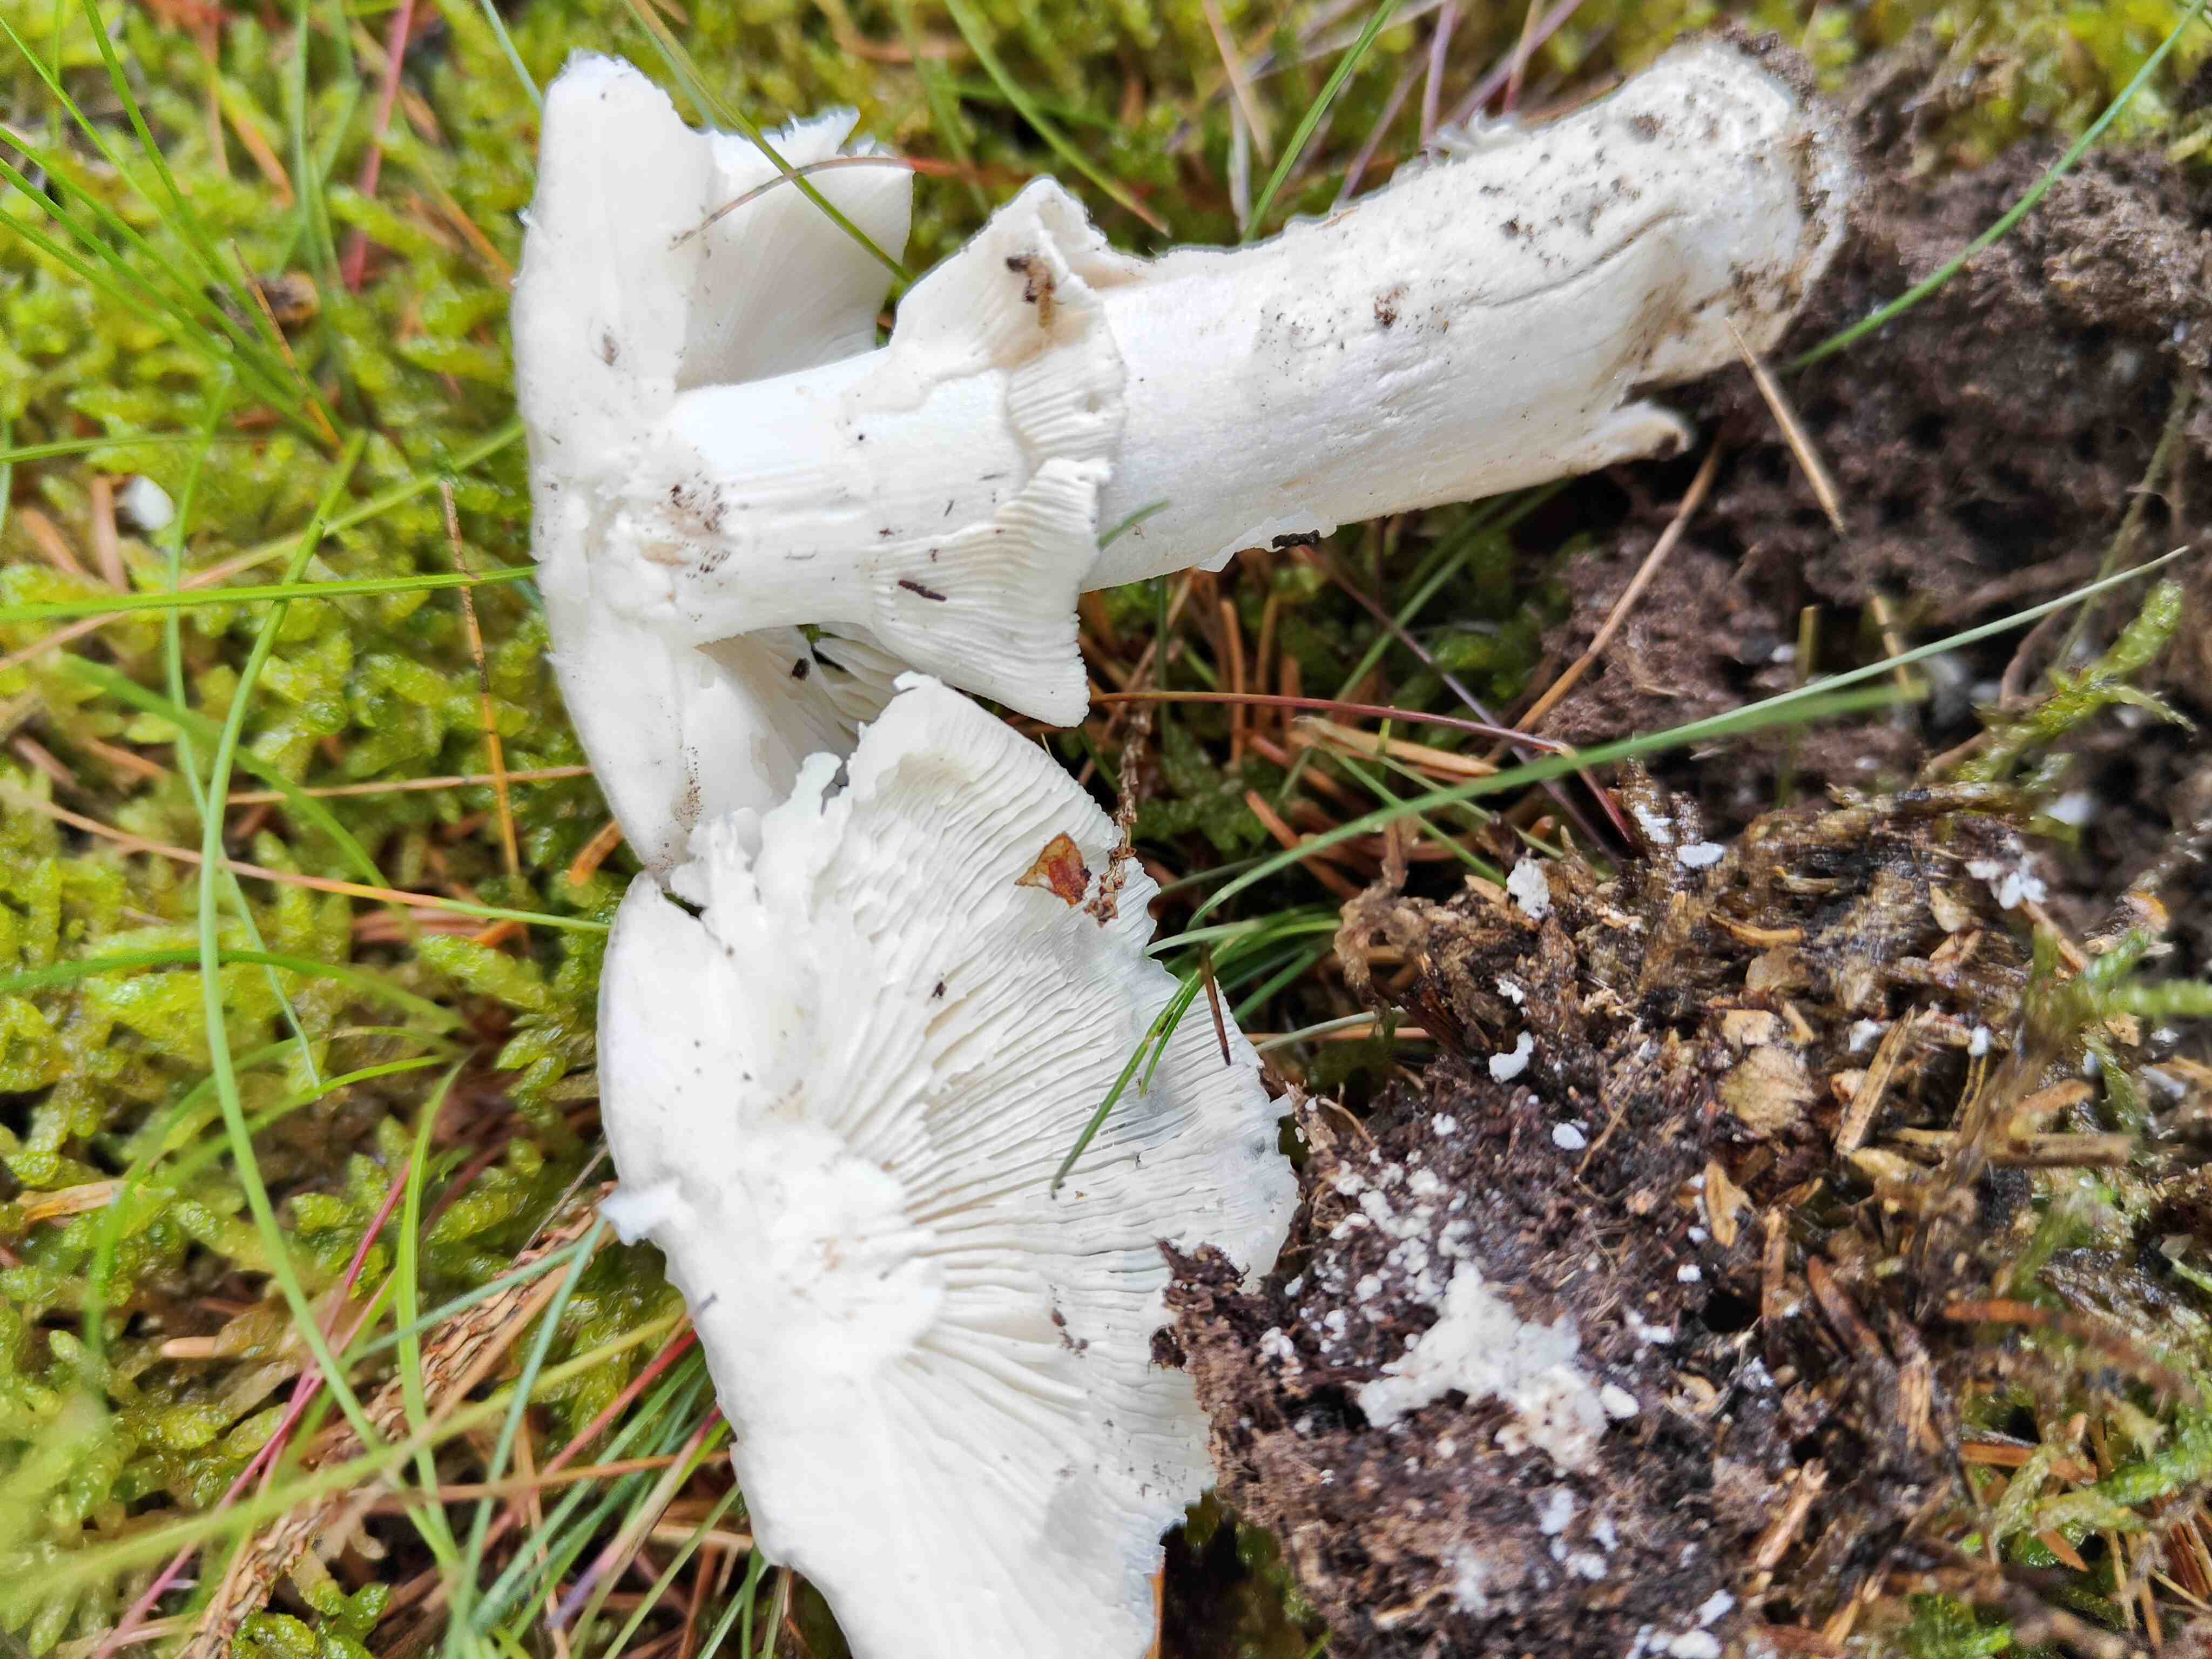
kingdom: Fungi
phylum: Basidiomycota
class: Agaricomycetes
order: Agaricales
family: Amanitaceae
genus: Amanita
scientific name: Amanita
